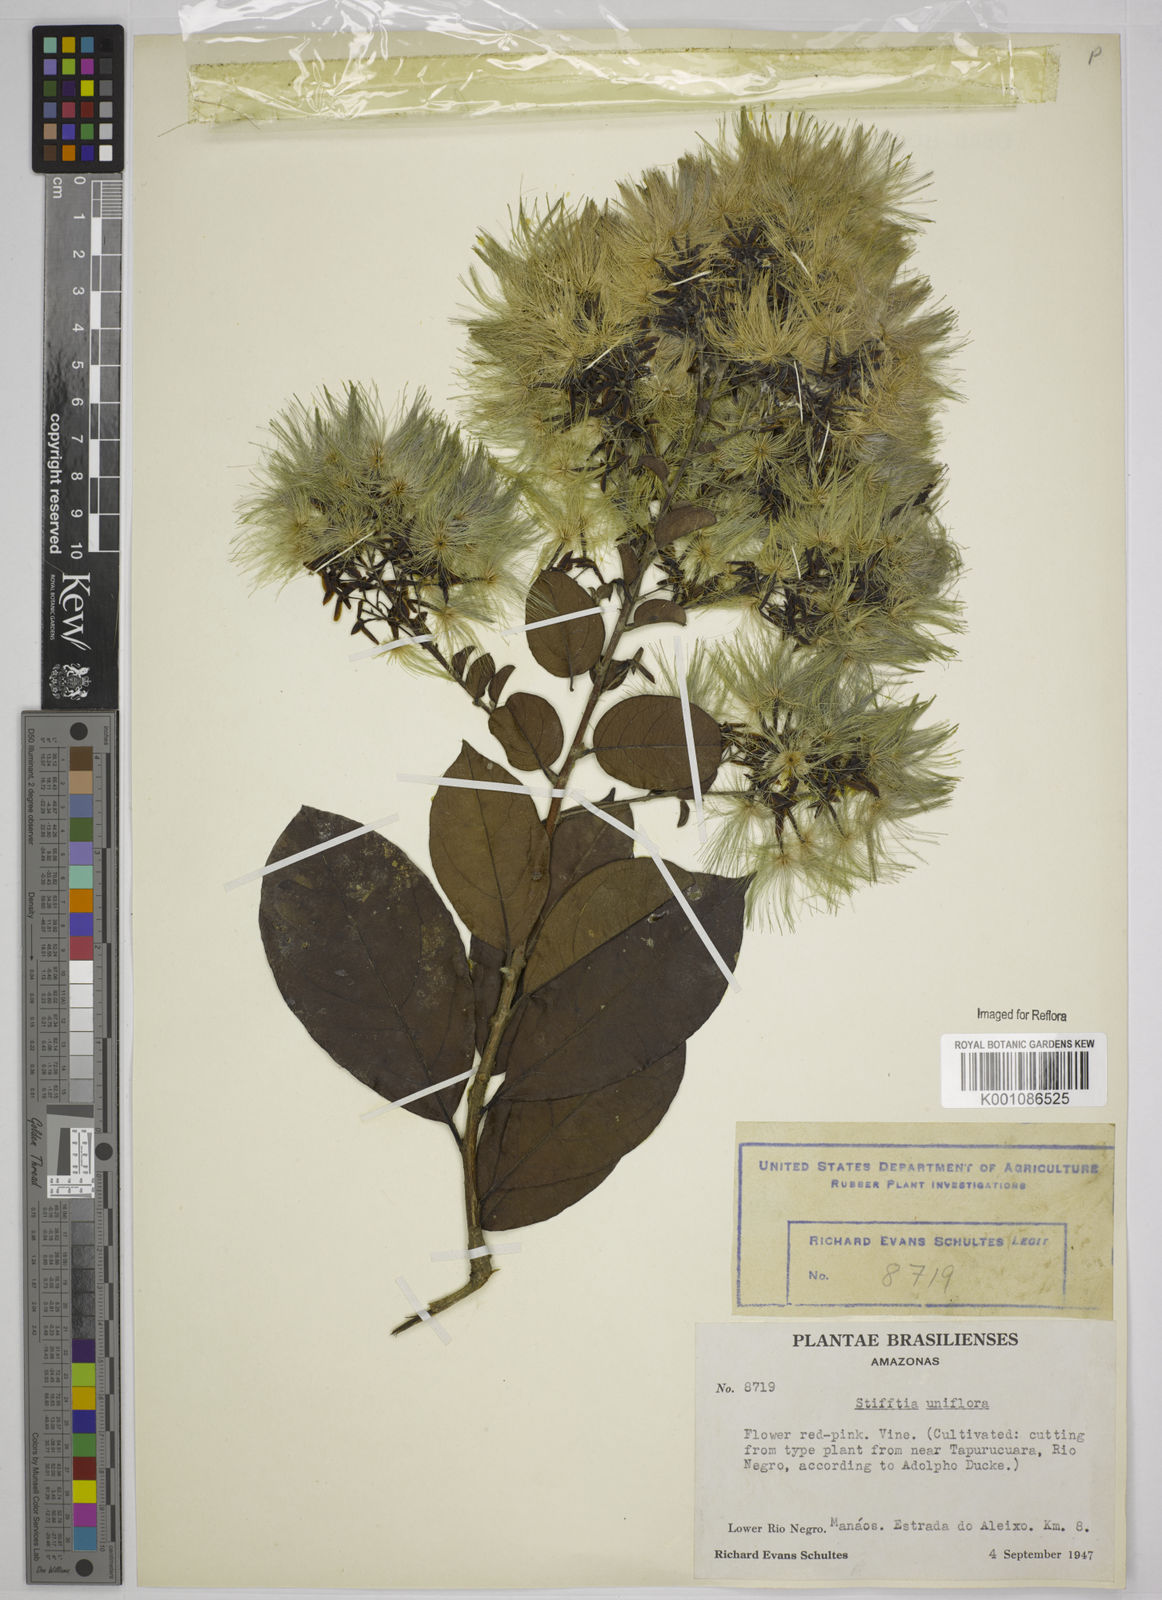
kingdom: Plantae
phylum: Tracheophyta
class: Magnoliopsida
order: Asterales
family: Asteraceae
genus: Stifftia
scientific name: Stifftia uniflora
